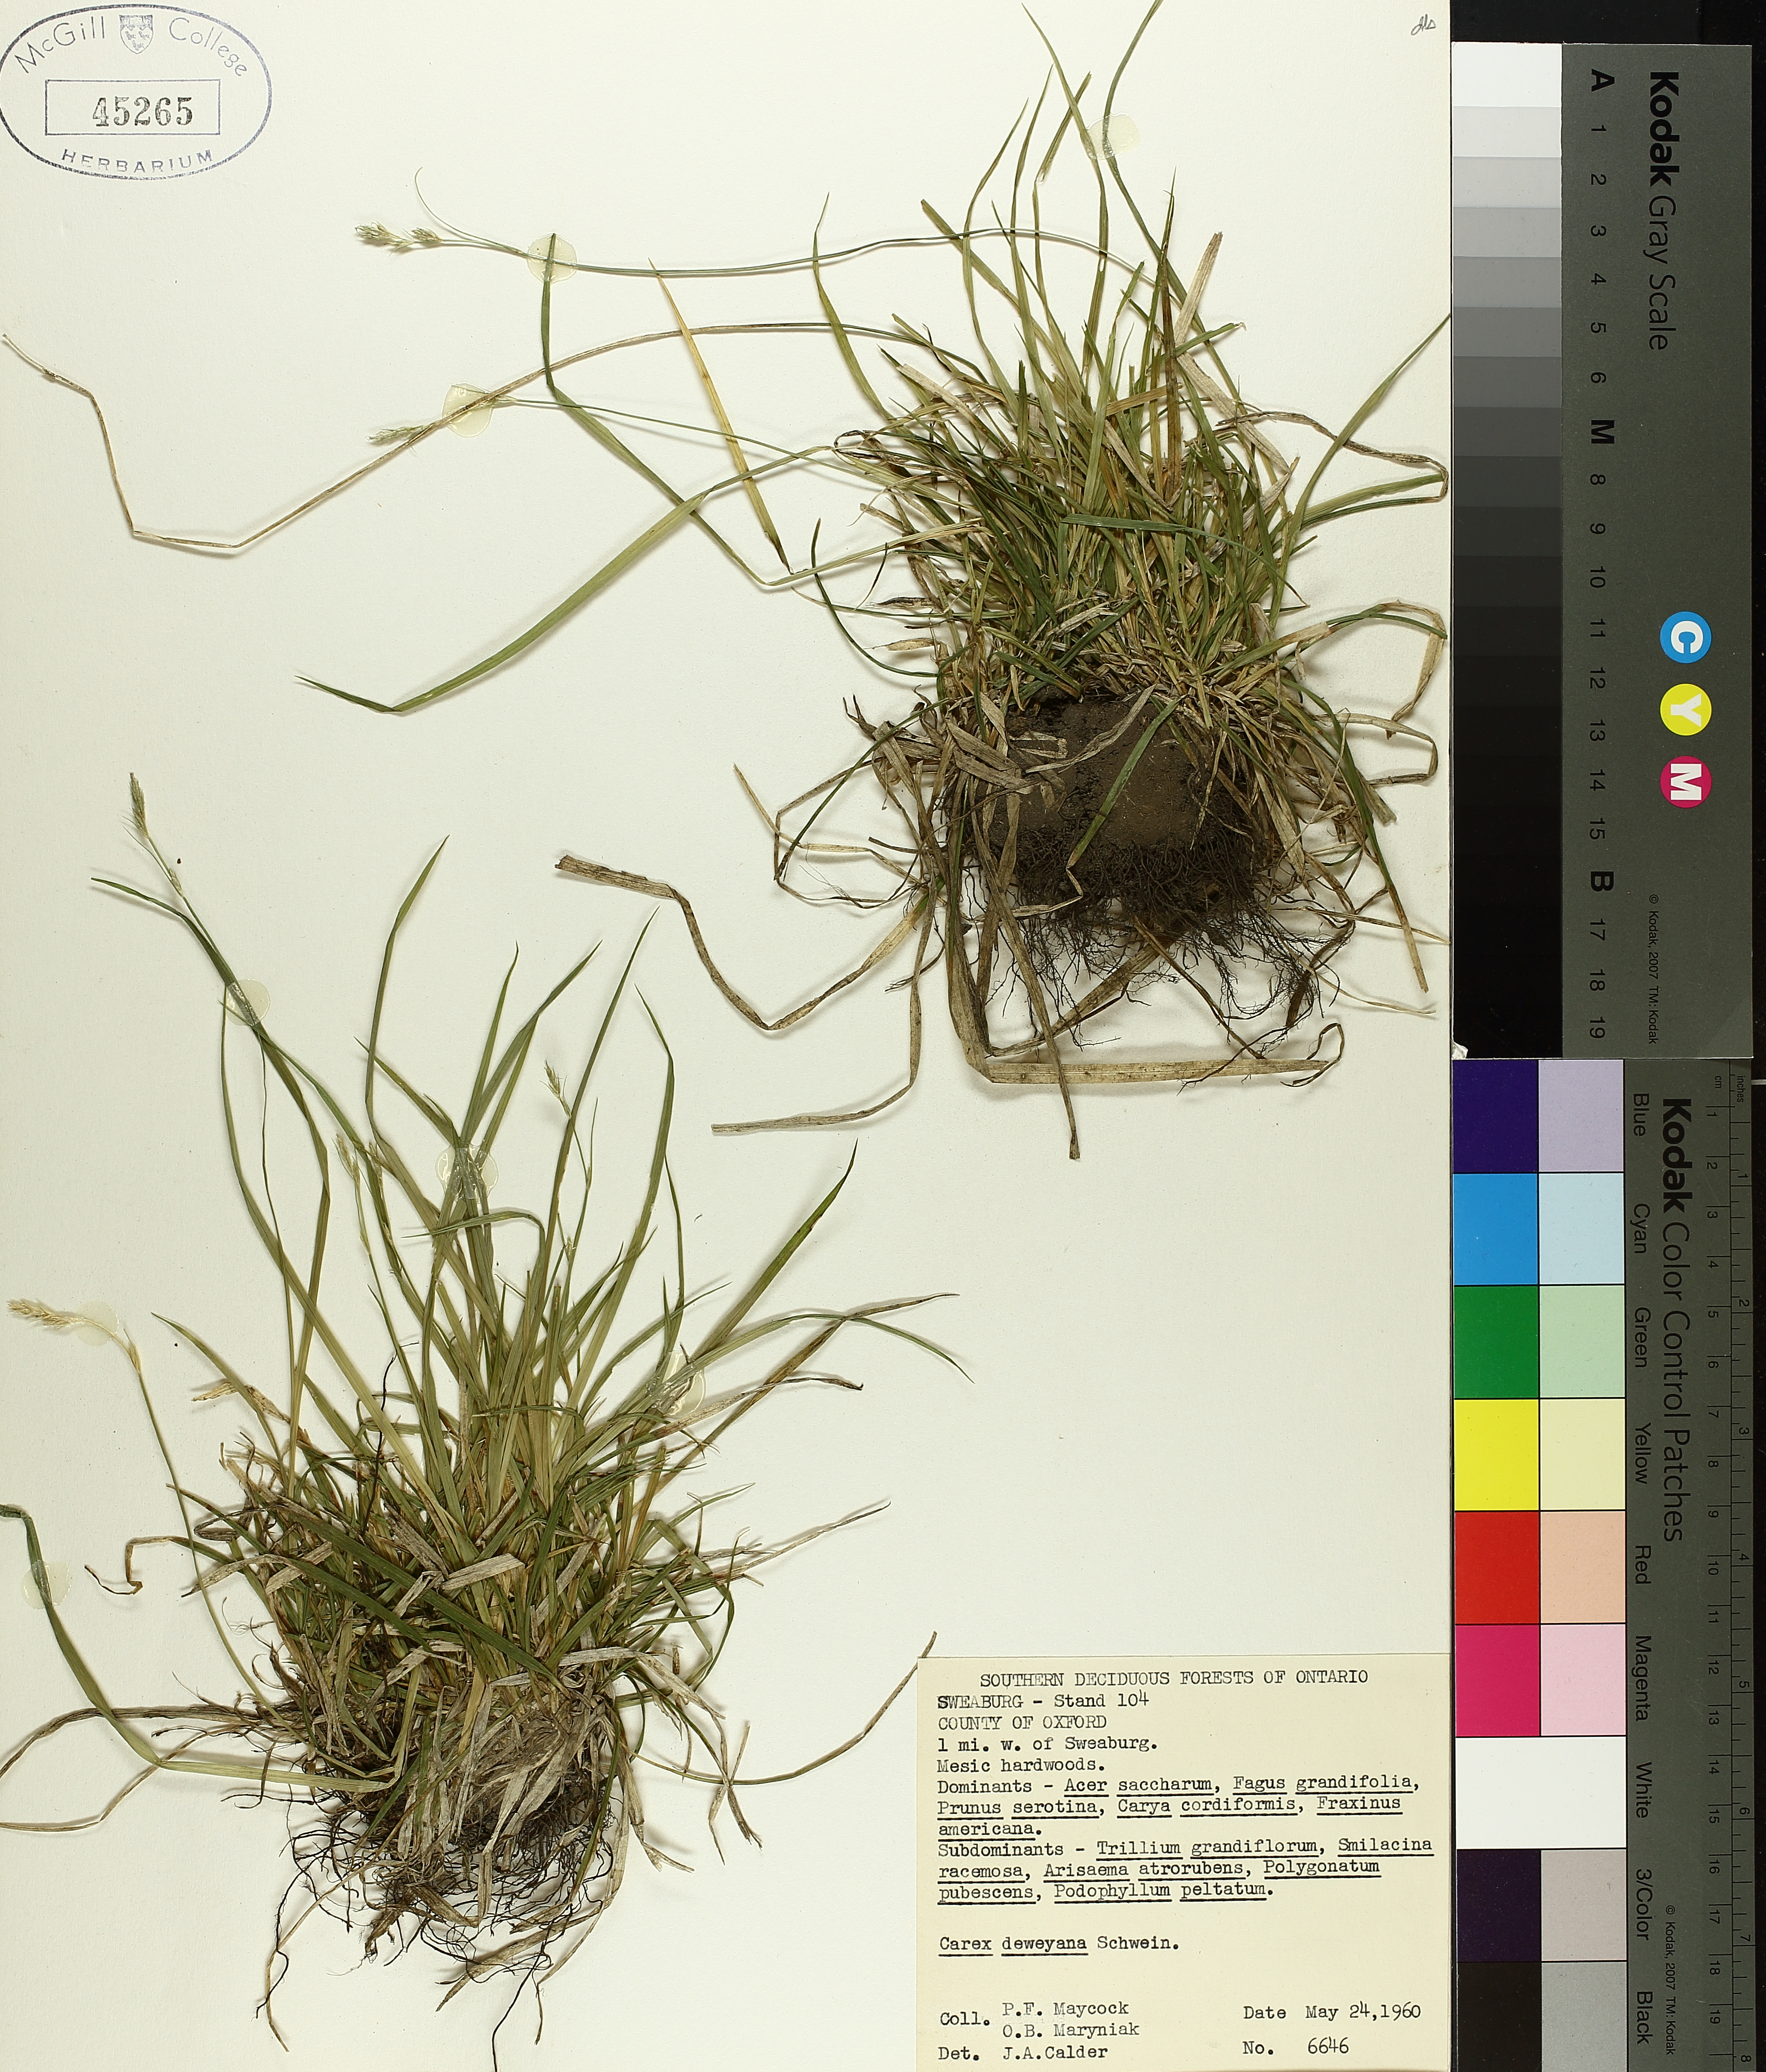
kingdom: Plantae
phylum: Tracheophyta
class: Liliopsida
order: Poales
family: Cyperaceae
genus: Carex
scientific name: Carex deweyana
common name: Dewey's sedge
